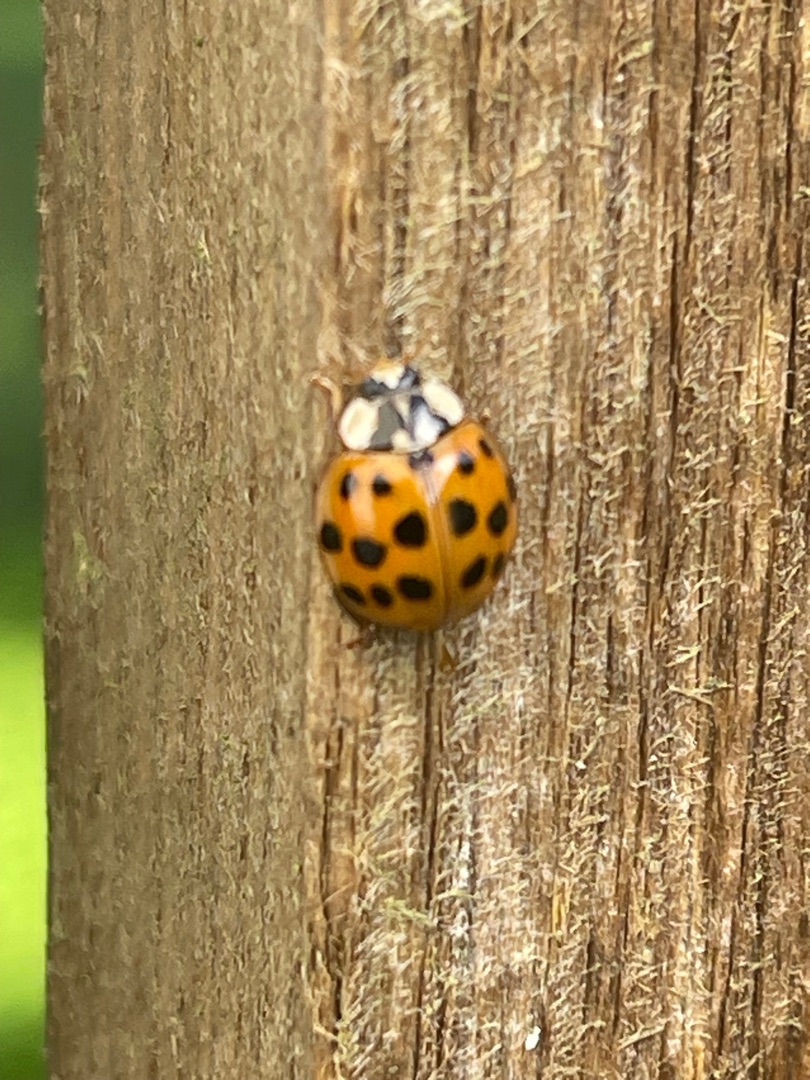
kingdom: Animalia
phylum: Arthropoda
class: Insecta
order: Coleoptera
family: Coccinellidae
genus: Harmonia
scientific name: Harmonia axyridis
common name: Harlekinmariehøne
